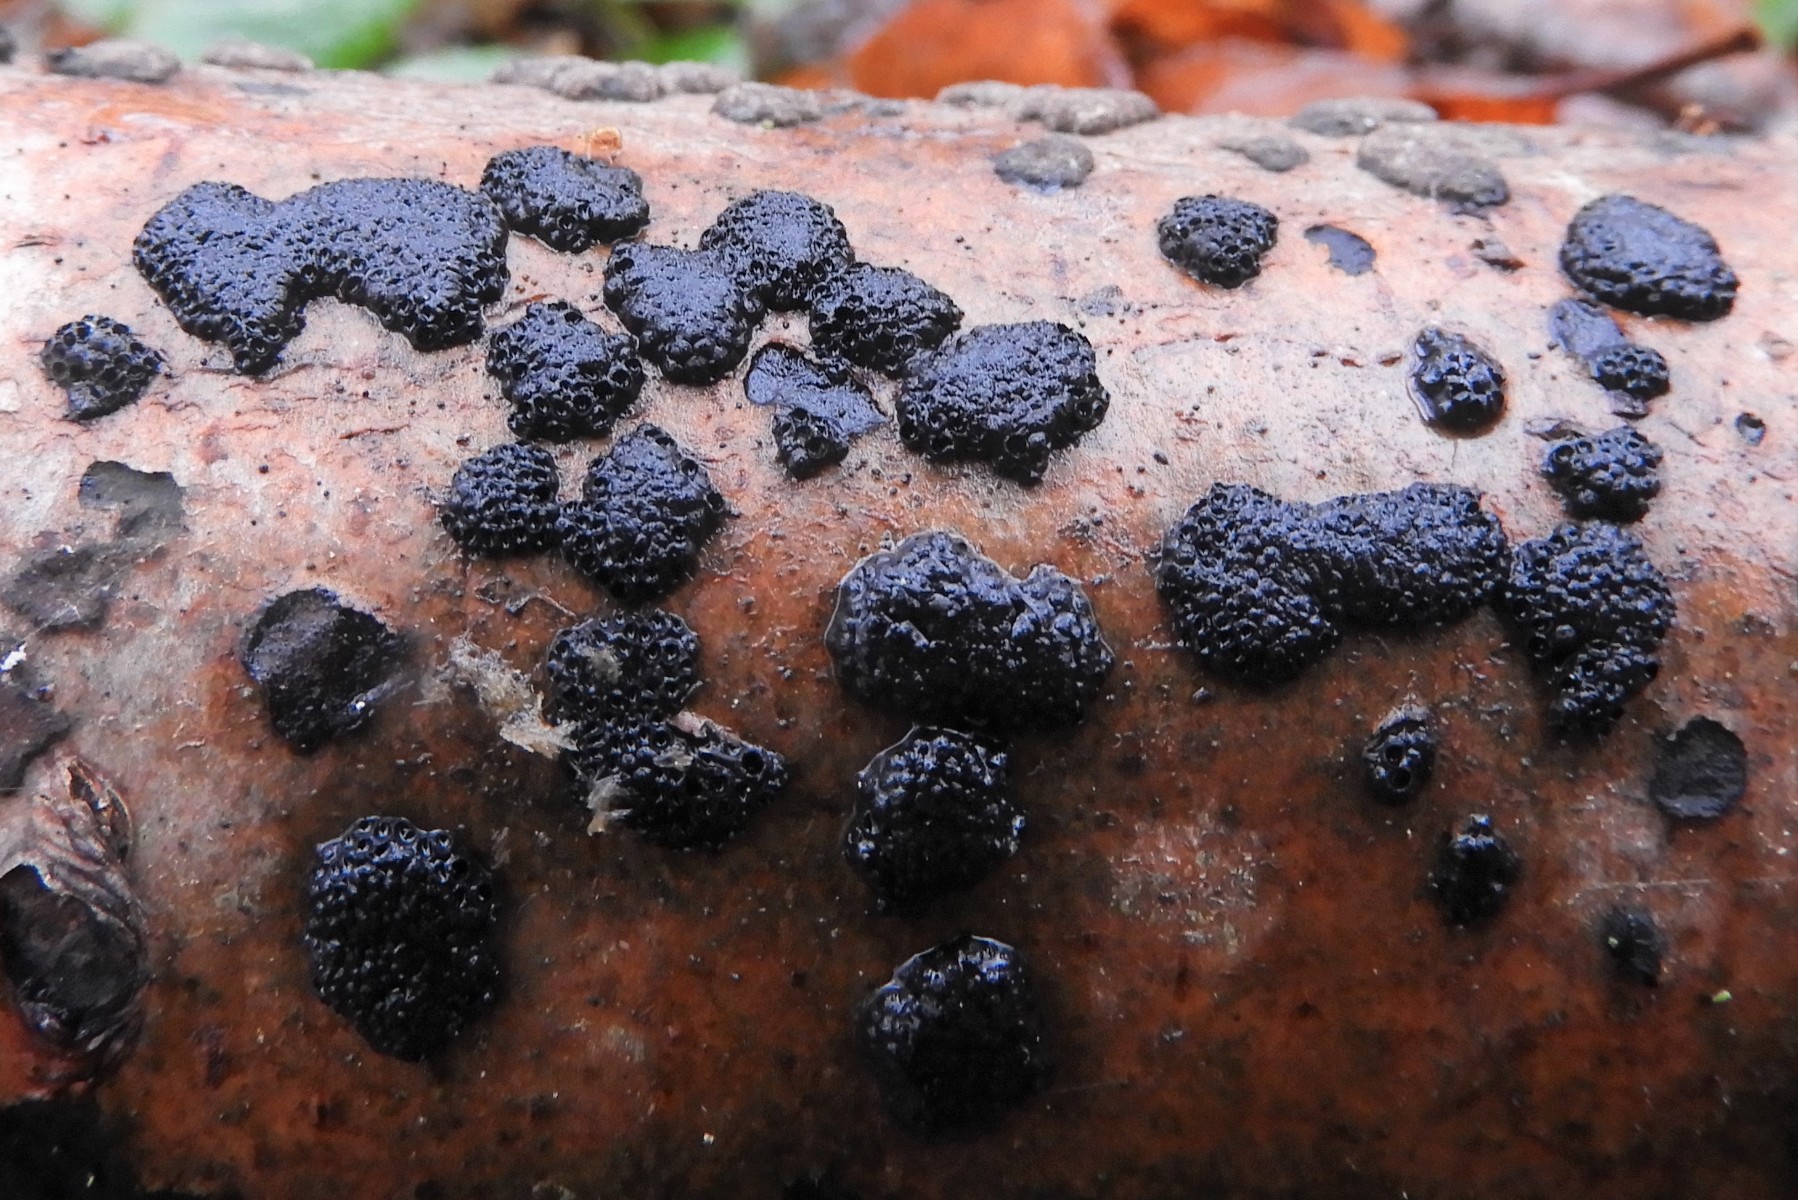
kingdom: Fungi
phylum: Ascomycota
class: Sordariomycetes
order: Xylariales
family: Hypoxylaceae
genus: Hypoxylon
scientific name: Hypoxylon macrocarpum
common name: skorpe-kulbær
